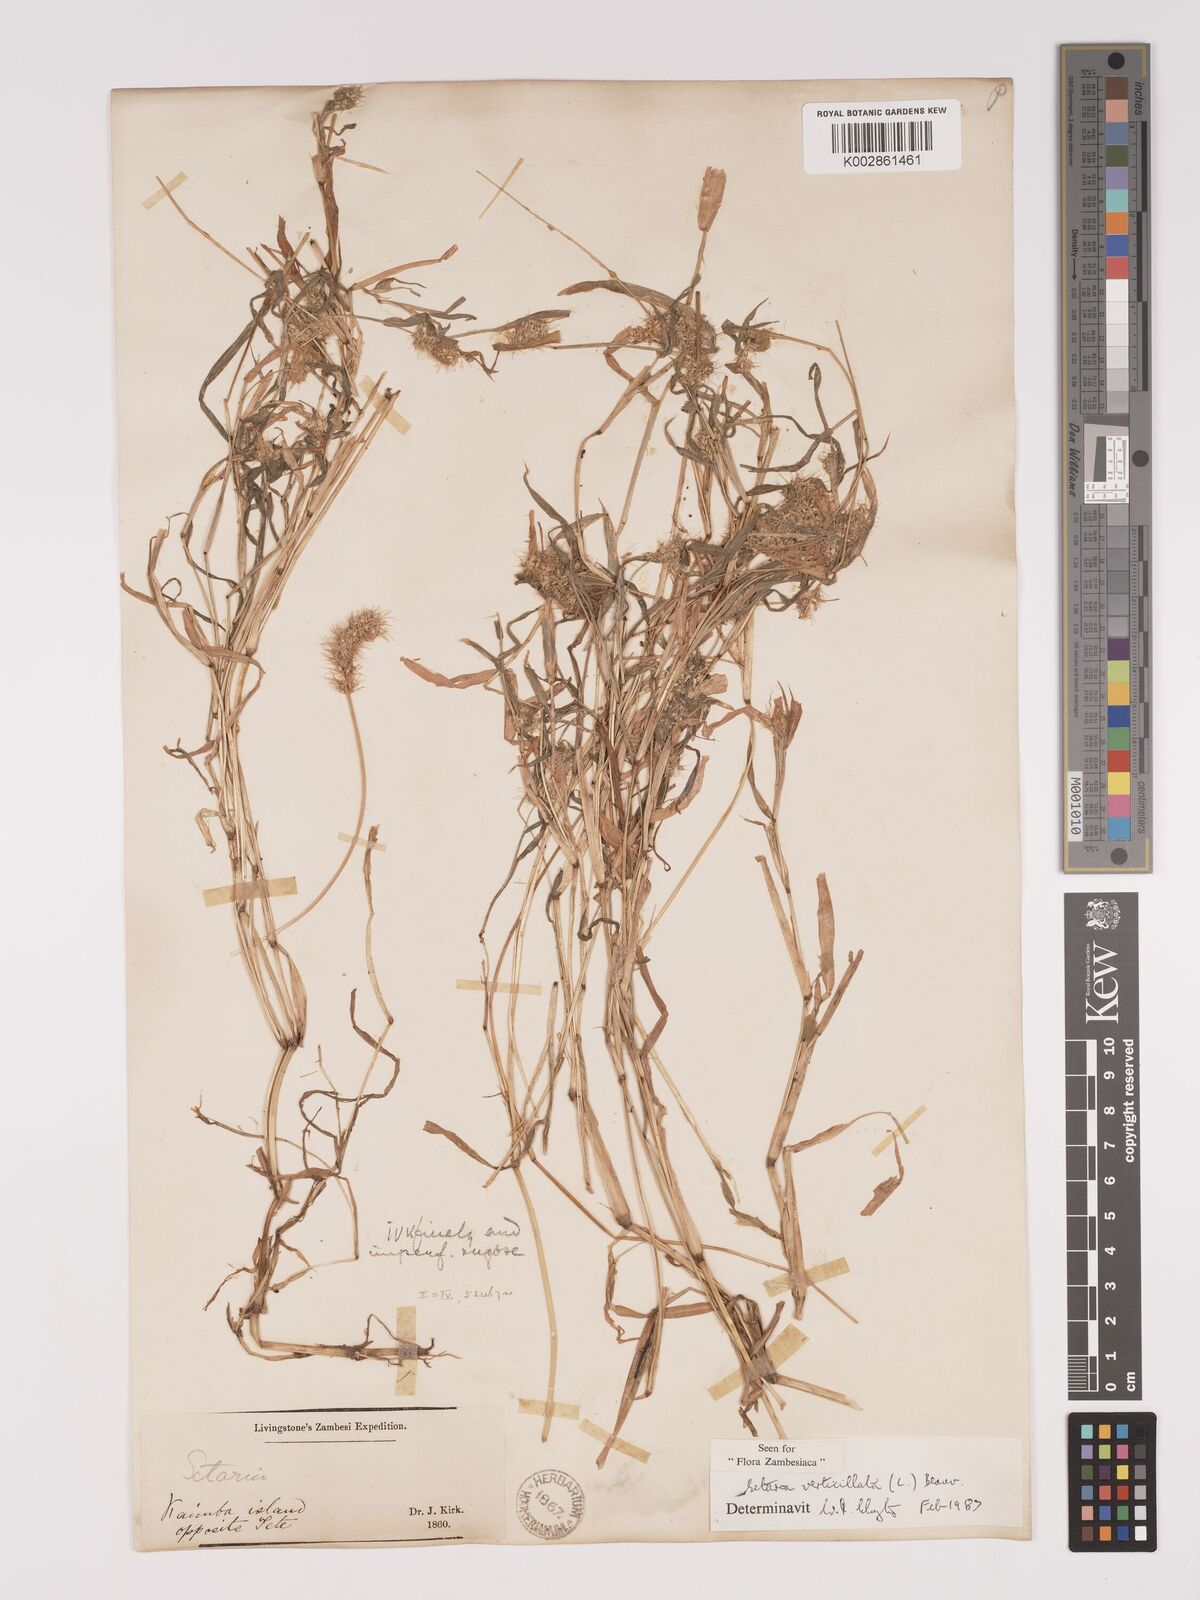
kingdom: Plantae
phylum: Tracheophyta
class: Liliopsida
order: Poales
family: Poaceae
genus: Setaria
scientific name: Setaria verticillata
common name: Hooked bristlegrass
